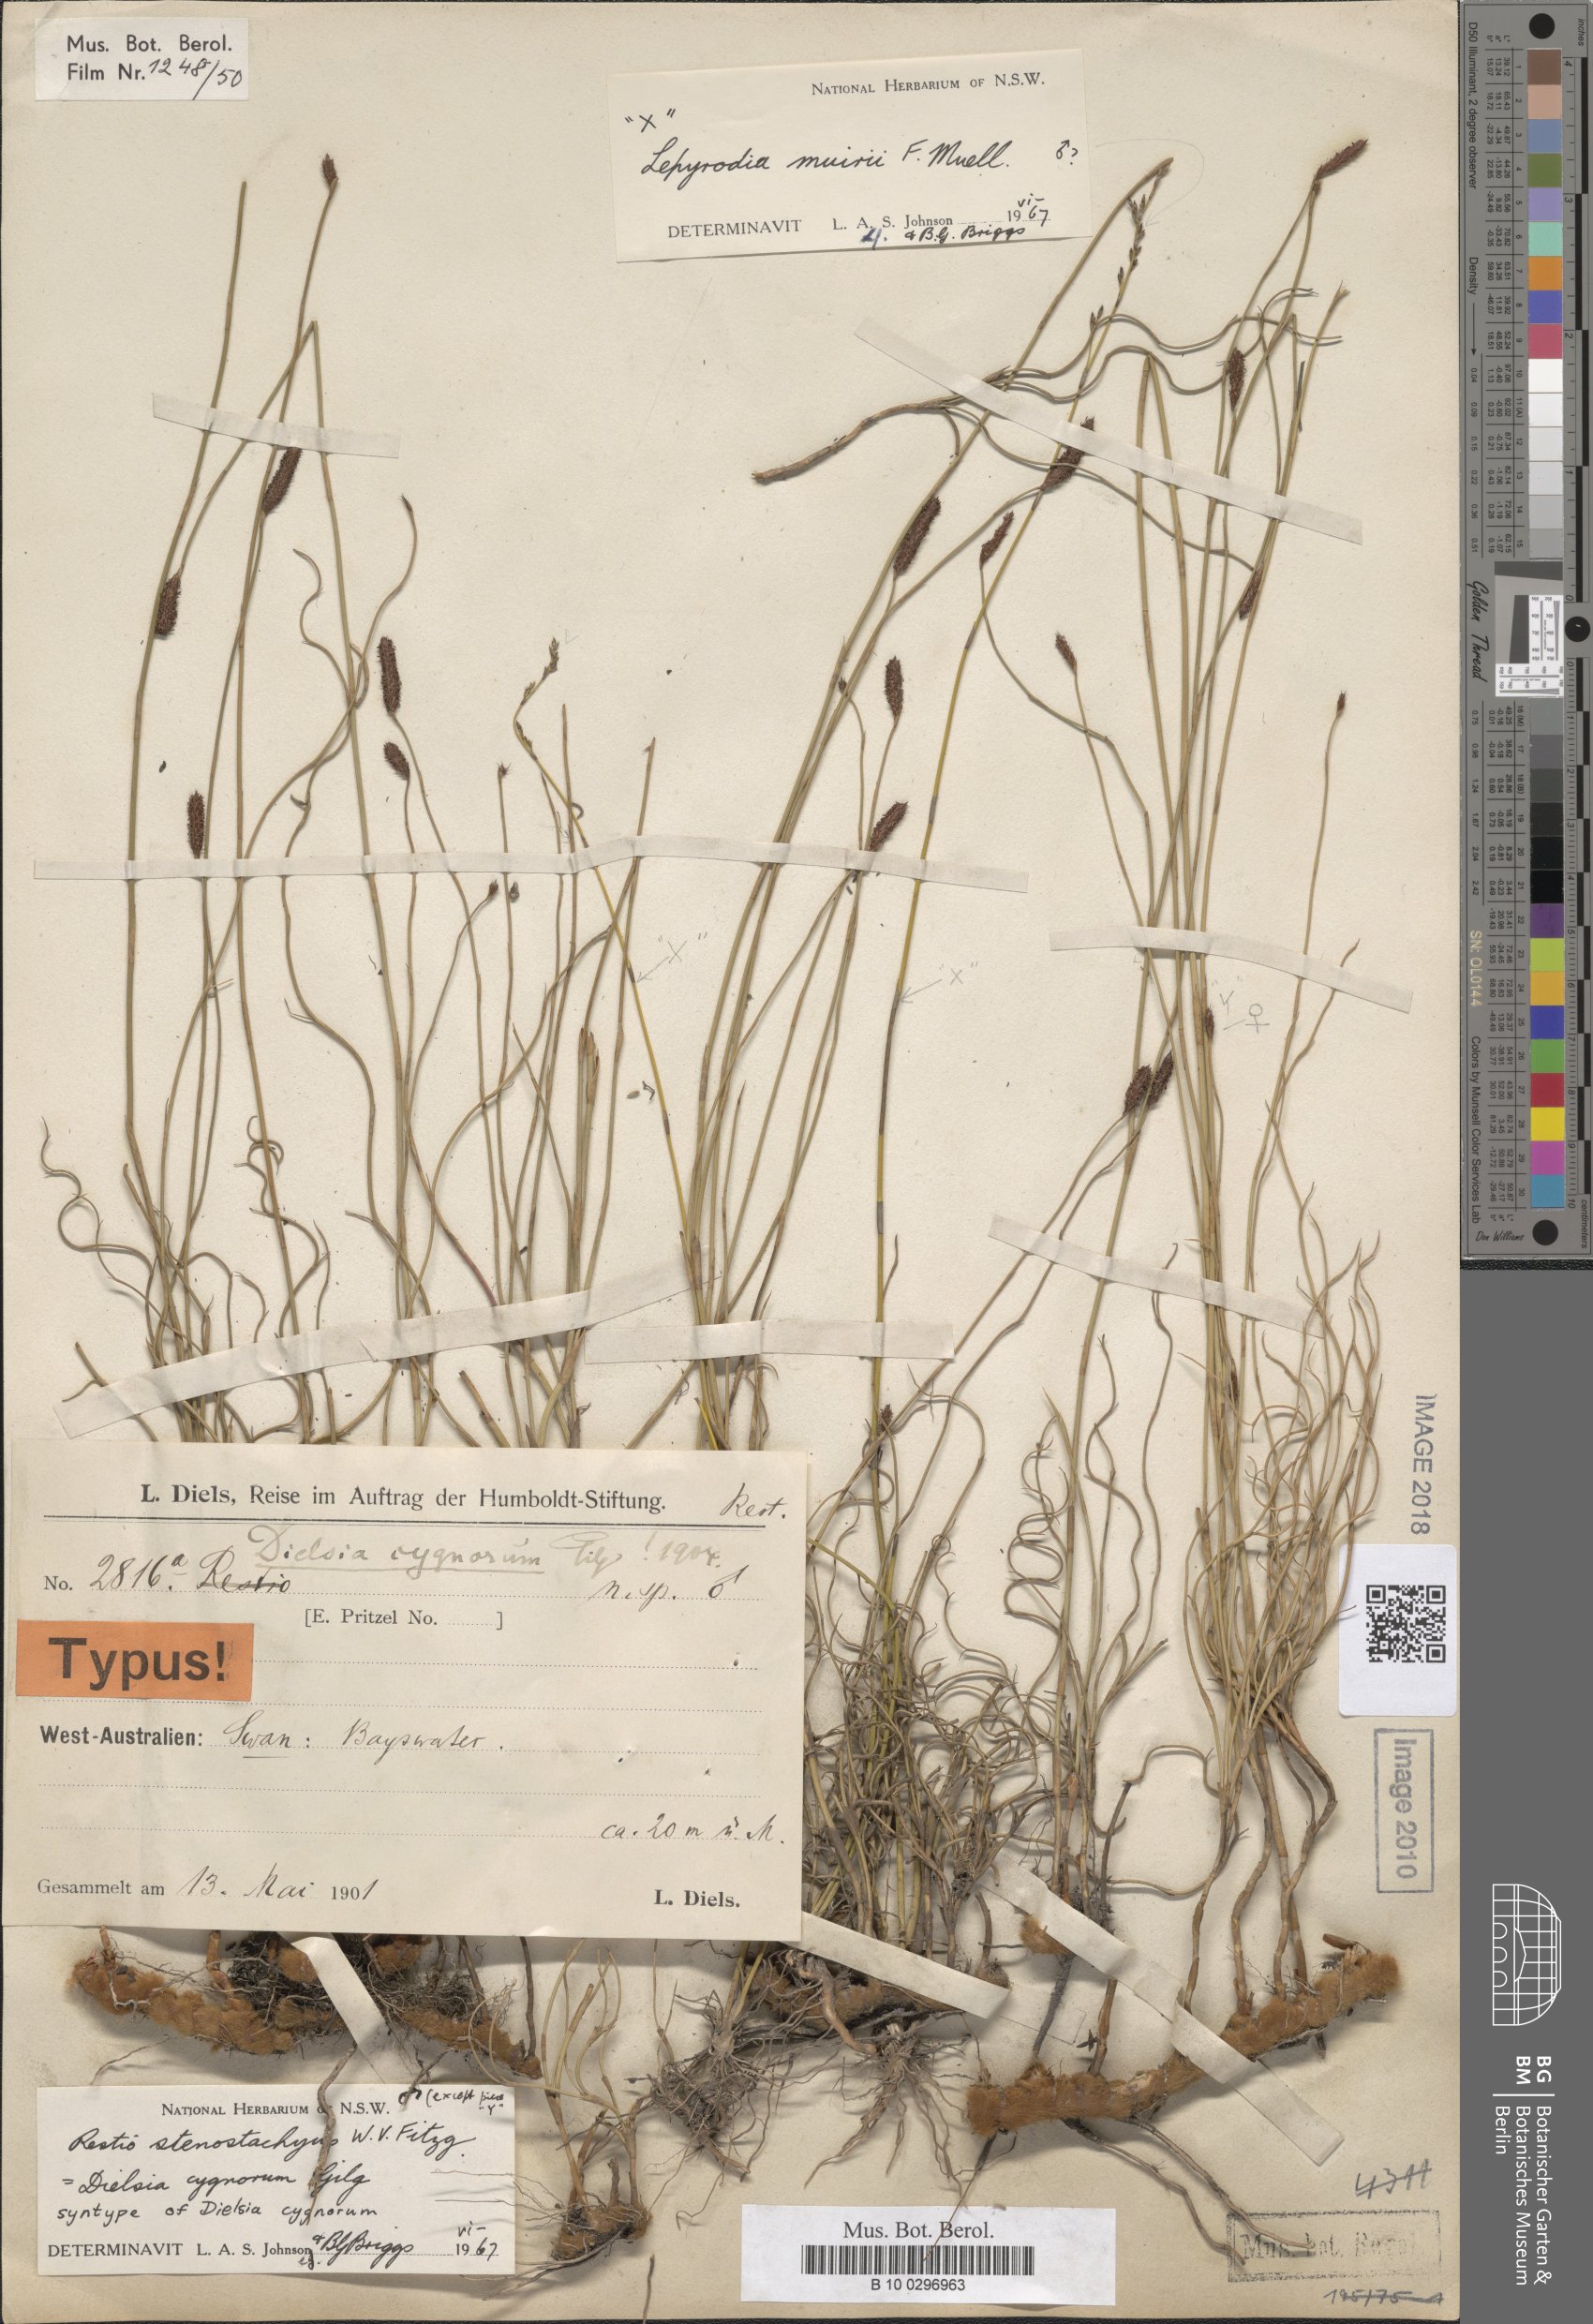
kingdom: Plantae
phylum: Tracheophyta
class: Liliopsida
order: Poales
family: Restionaceae
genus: Dielsia
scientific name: Dielsia stenostachya
